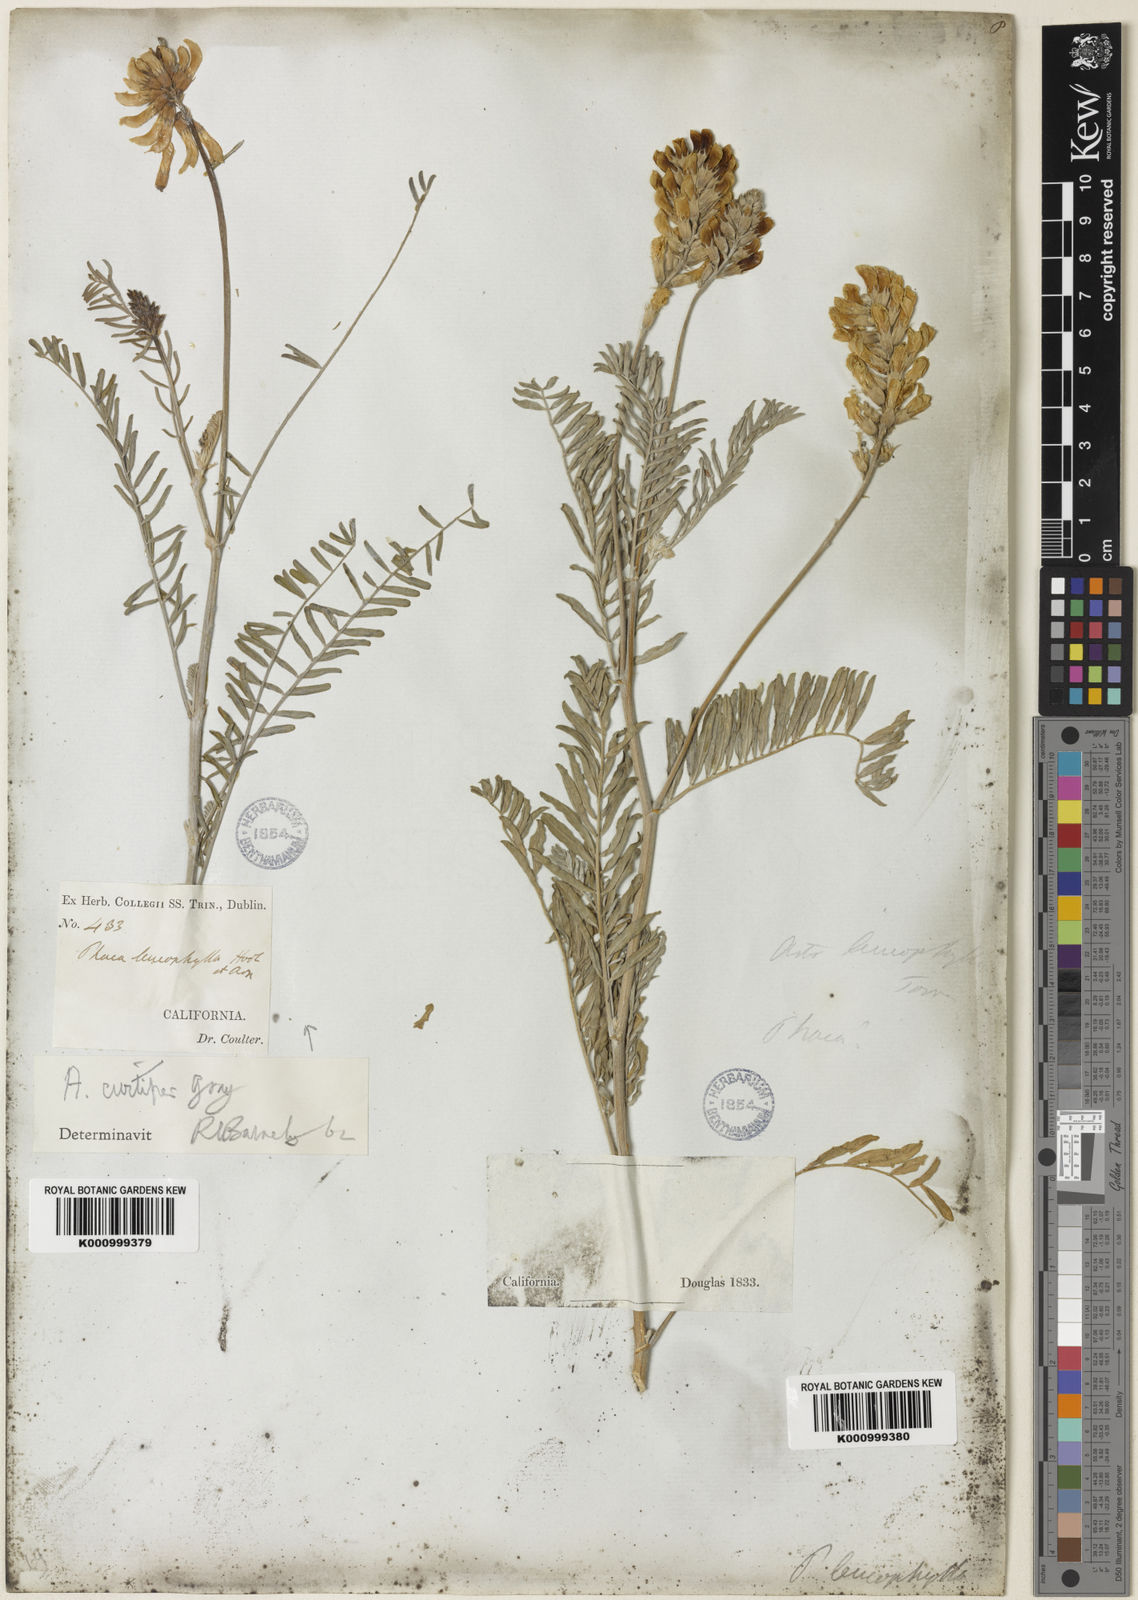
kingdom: Plantae
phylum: Tracheophyta
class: Magnoliopsida
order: Fabales
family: Fabaceae
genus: Astragalus
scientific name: Astragalus asymmetricus
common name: Horse locoweed
